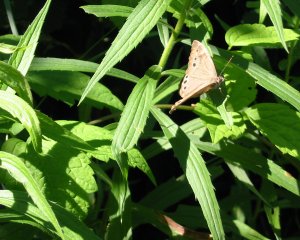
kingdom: Animalia
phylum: Arthropoda
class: Insecta
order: Lepidoptera
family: Nymphalidae
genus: Lethe
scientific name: Lethe anthedon
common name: Northern Pearly-Eye
